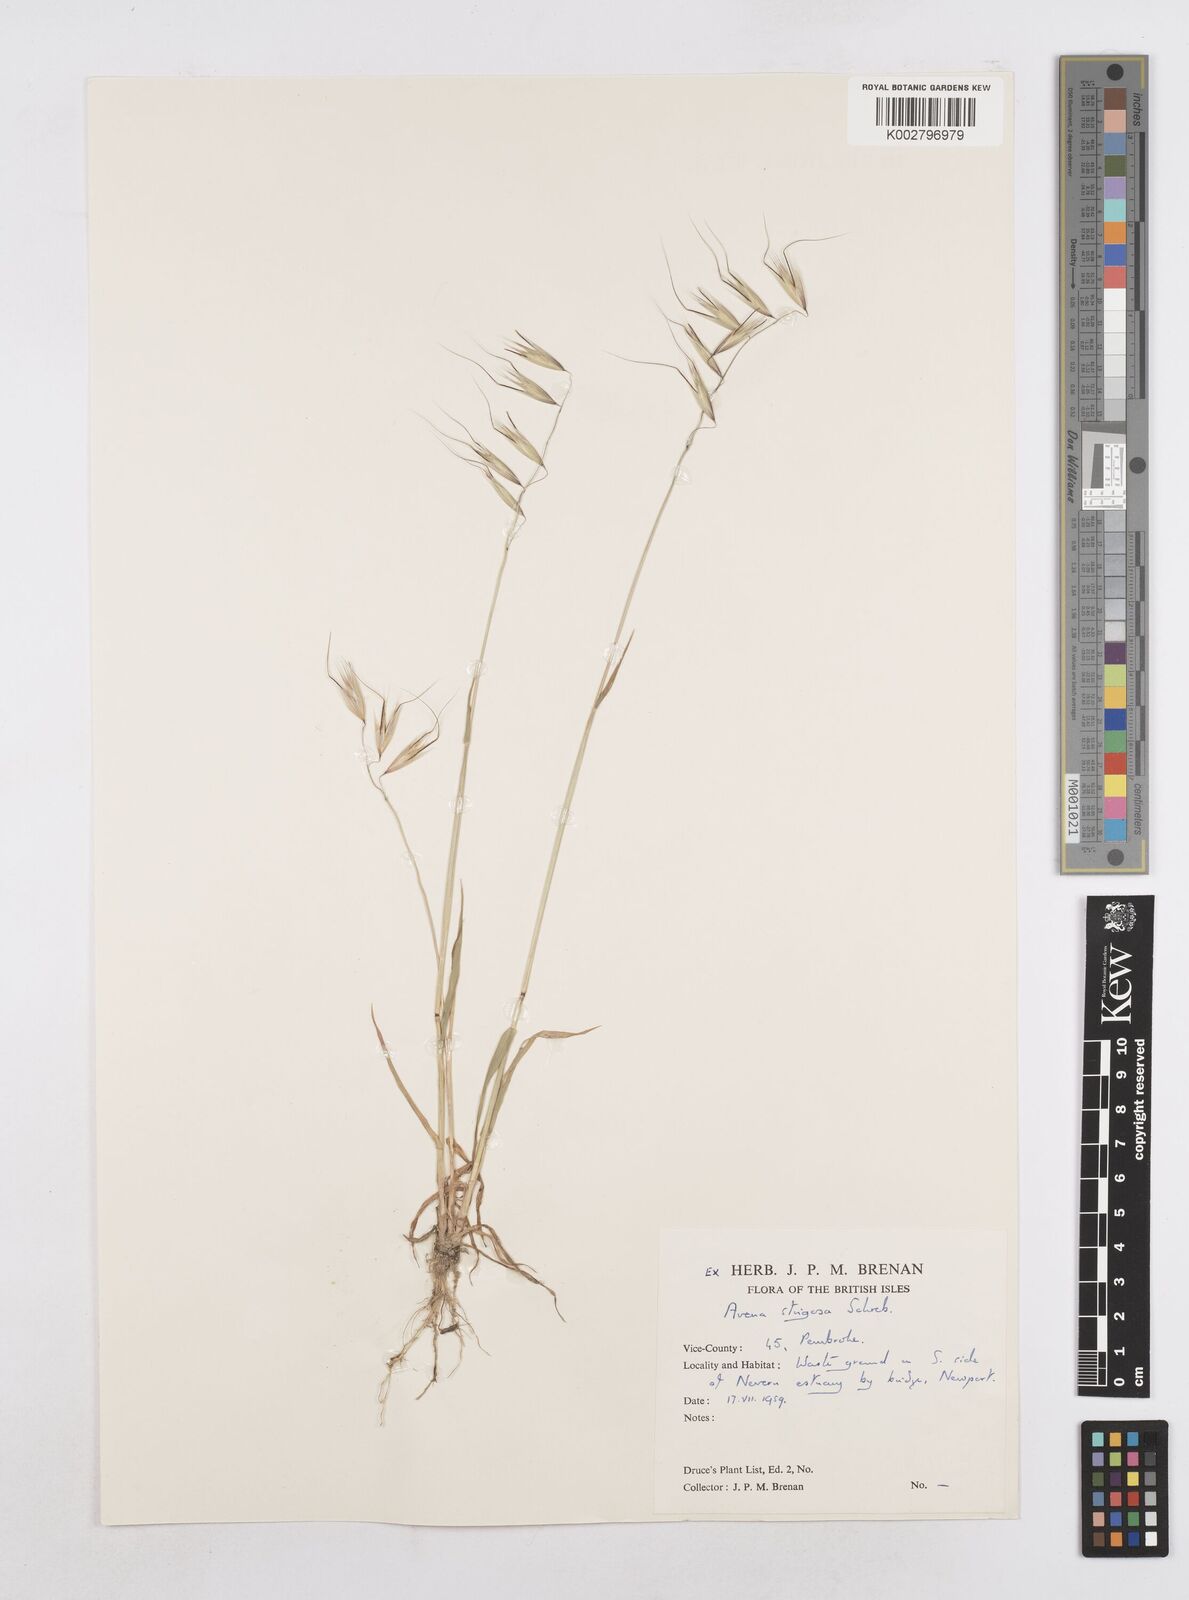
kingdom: Plantae
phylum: Tracheophyta
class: Liliopsida
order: Poales
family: Poaceae
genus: Avena
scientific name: Avena strigosa
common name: Bristle oat
